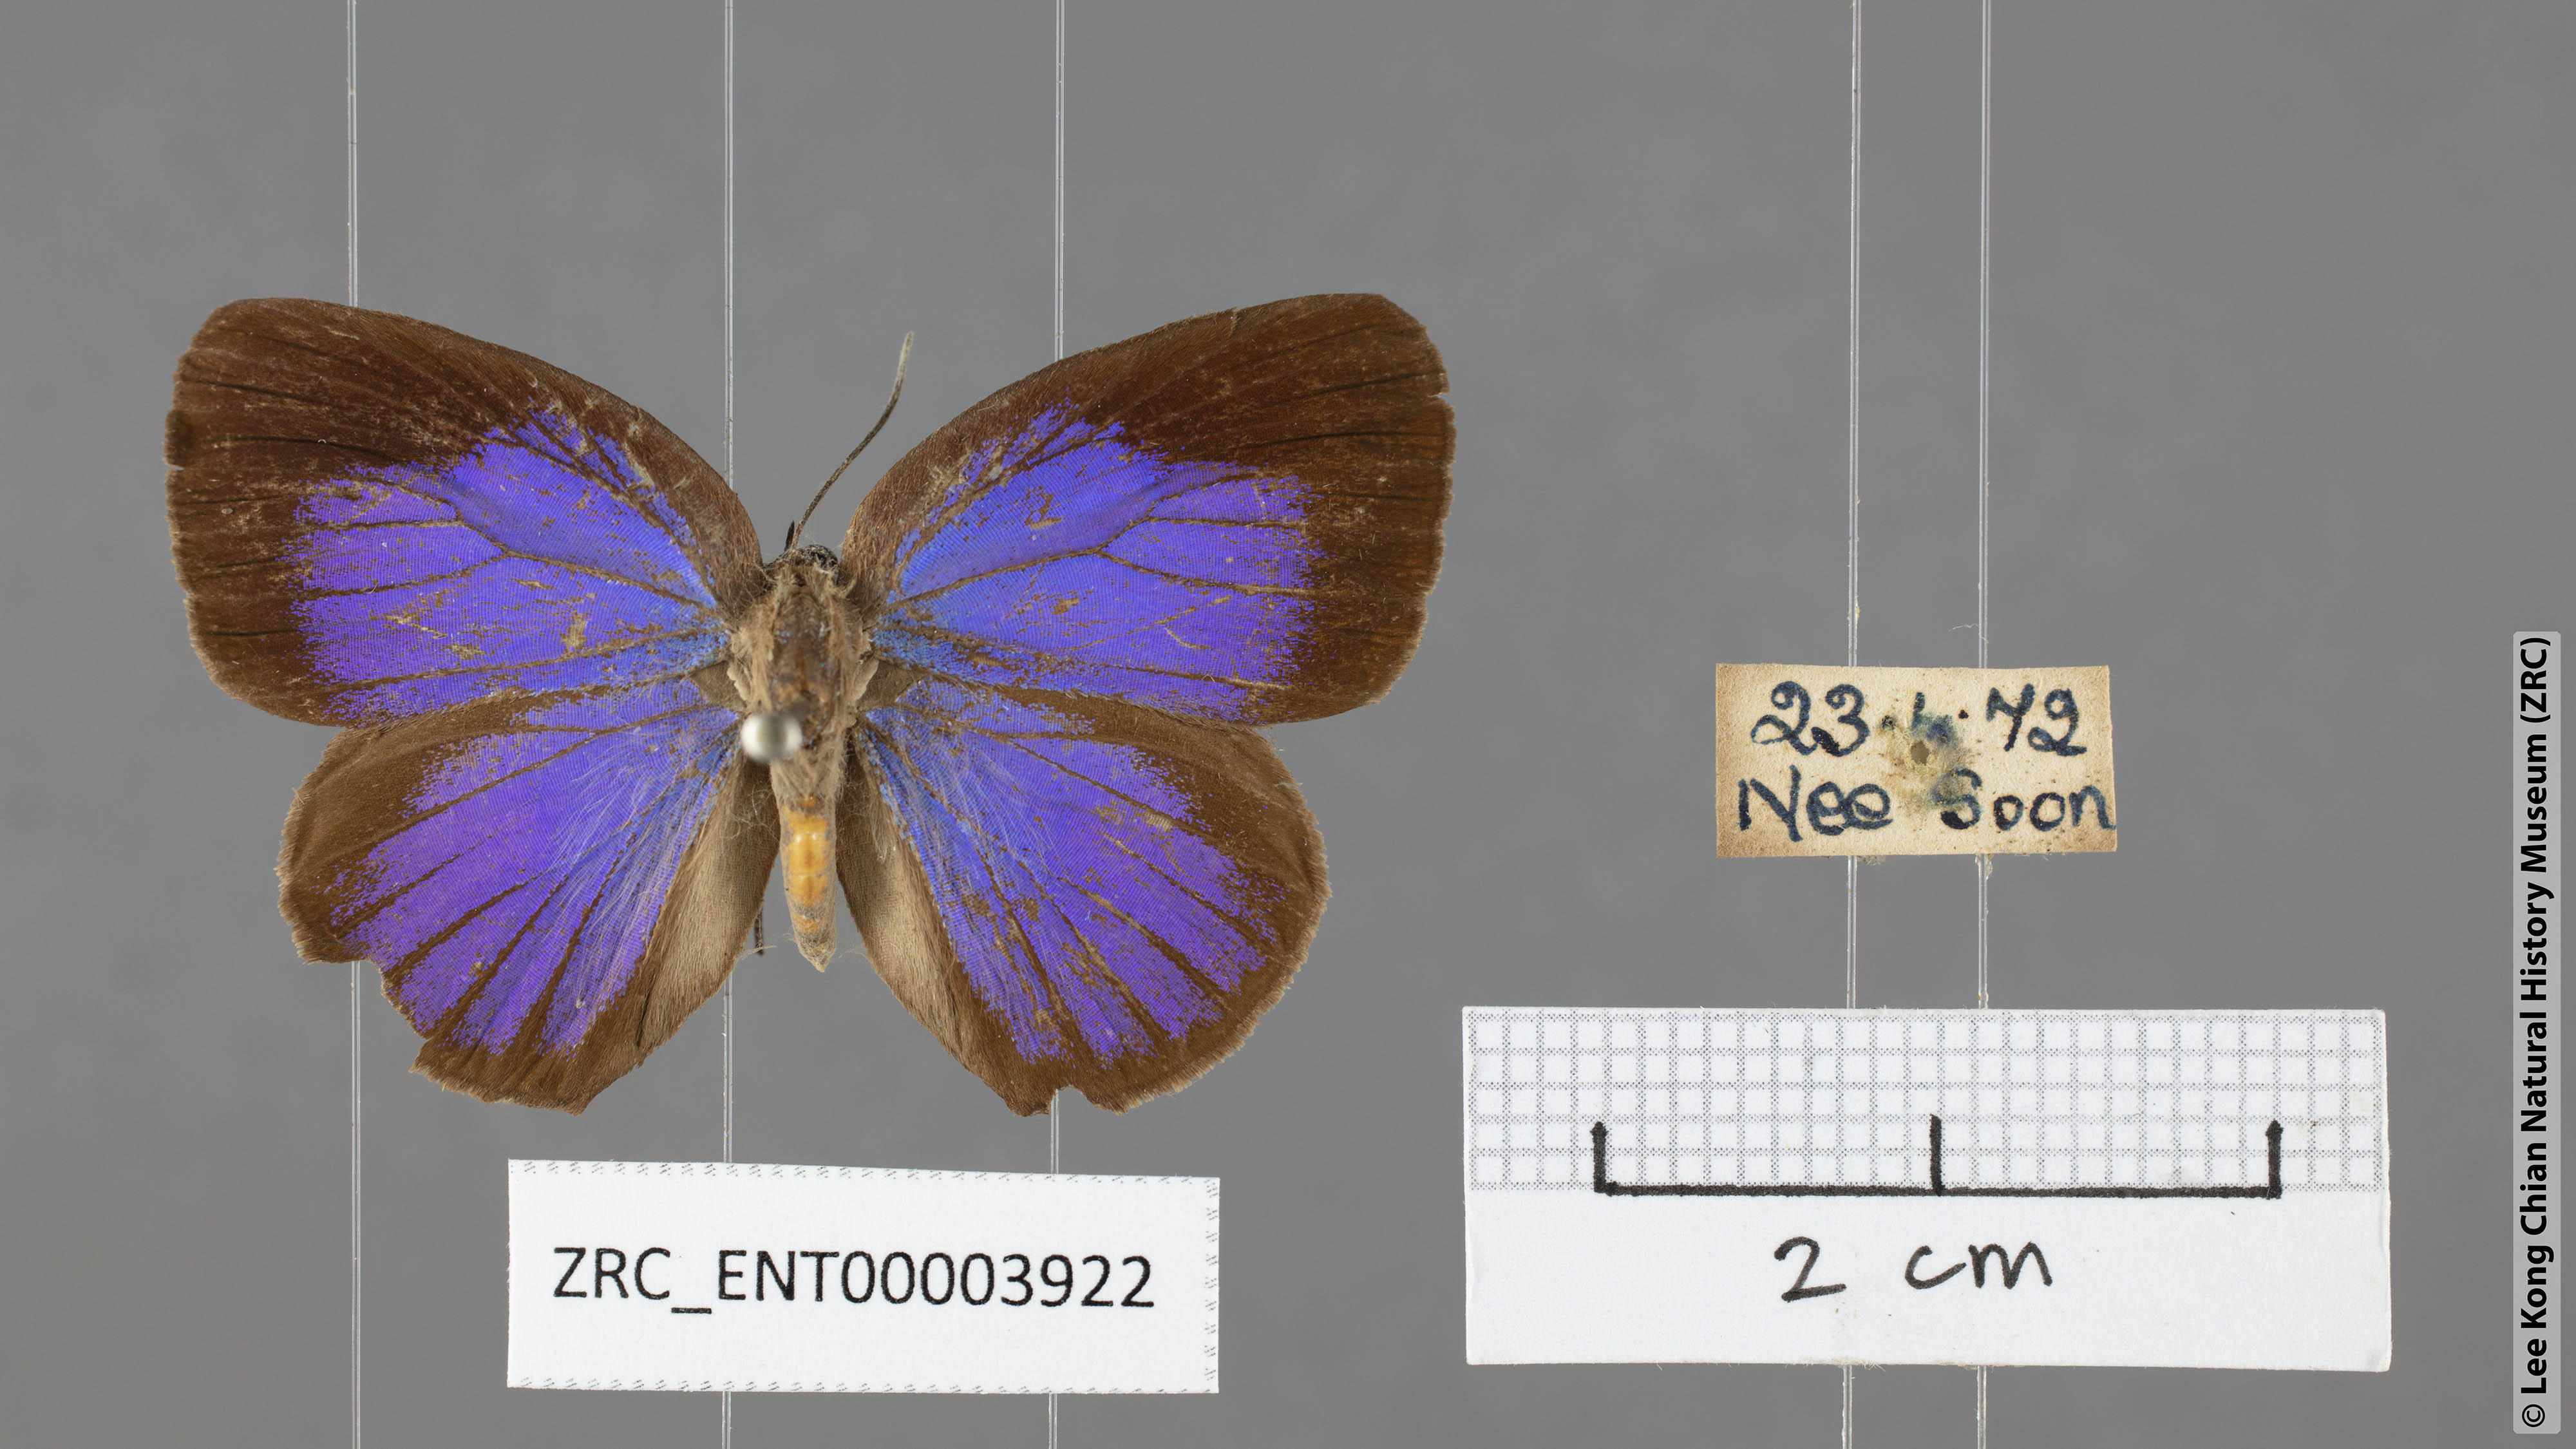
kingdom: Animalia
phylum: Arthropoda
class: Insecta
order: Lepidoptera
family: Lycaenidae
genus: Arhopala
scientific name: Arhopala epimuta
